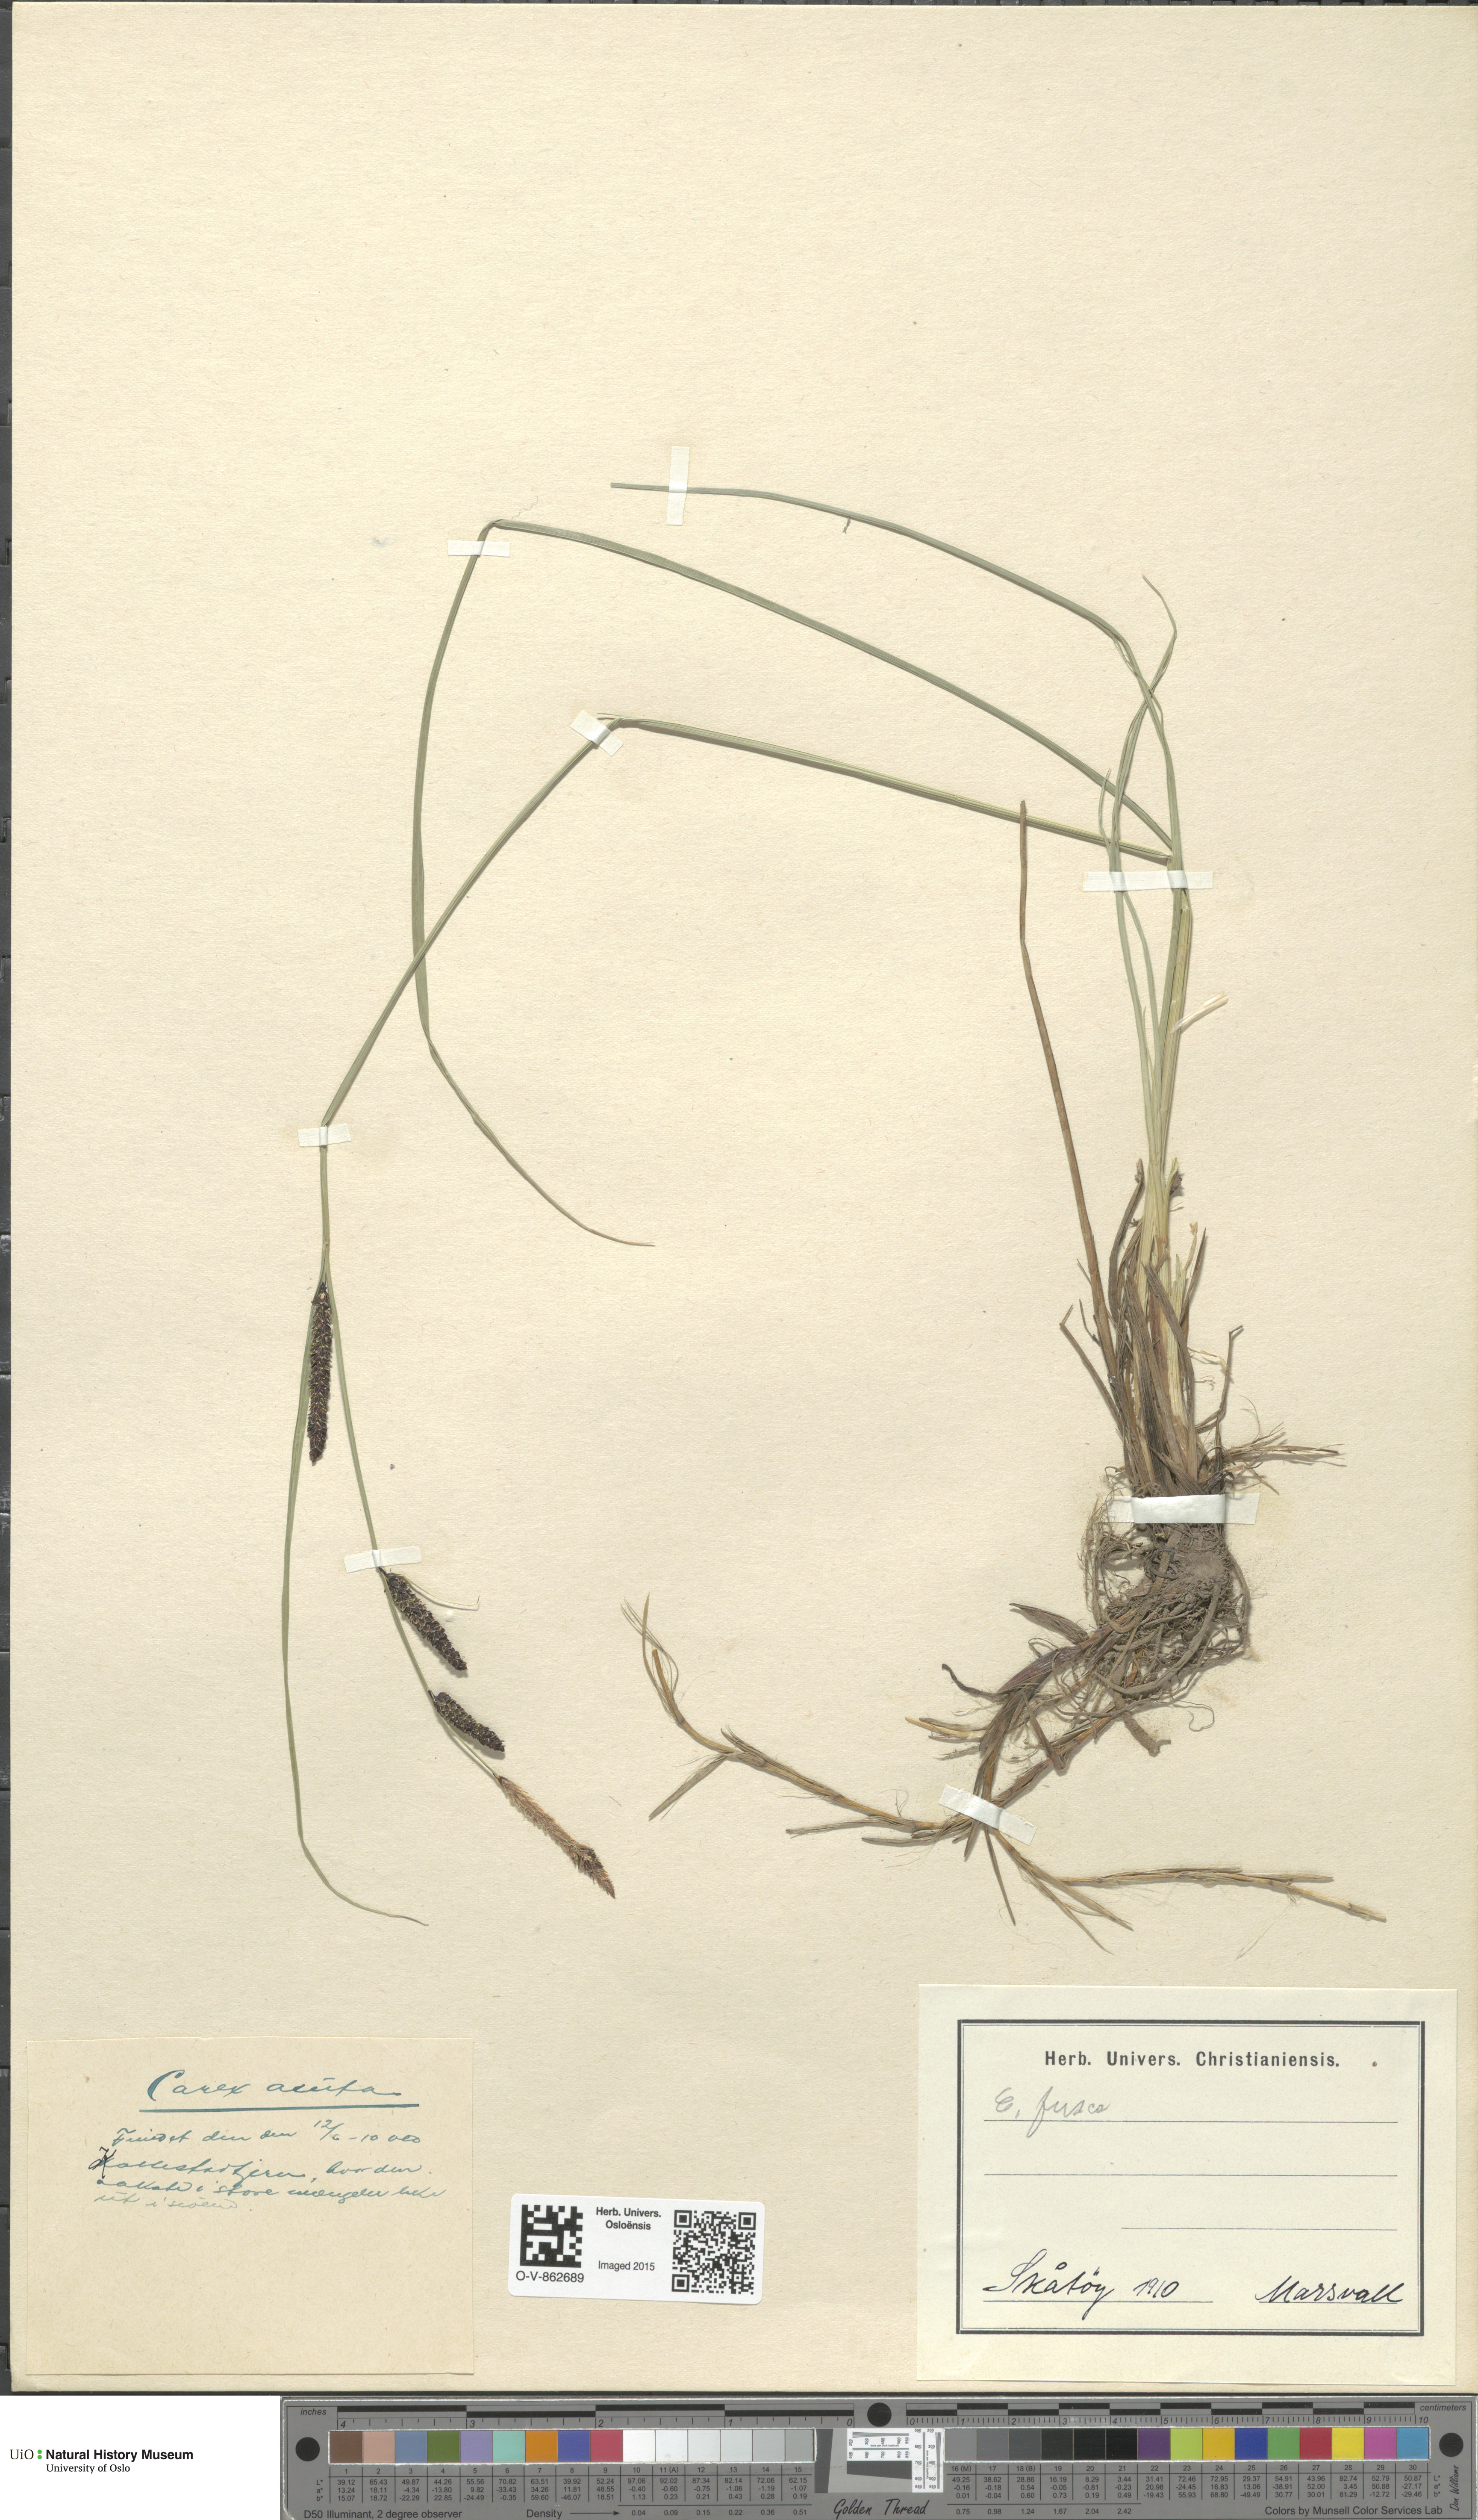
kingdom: Plantae
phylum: Tracheophyta
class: Liliopsida
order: Poales
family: Cyperaceae
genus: Carex
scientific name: Carex nigra
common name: Common sedge
